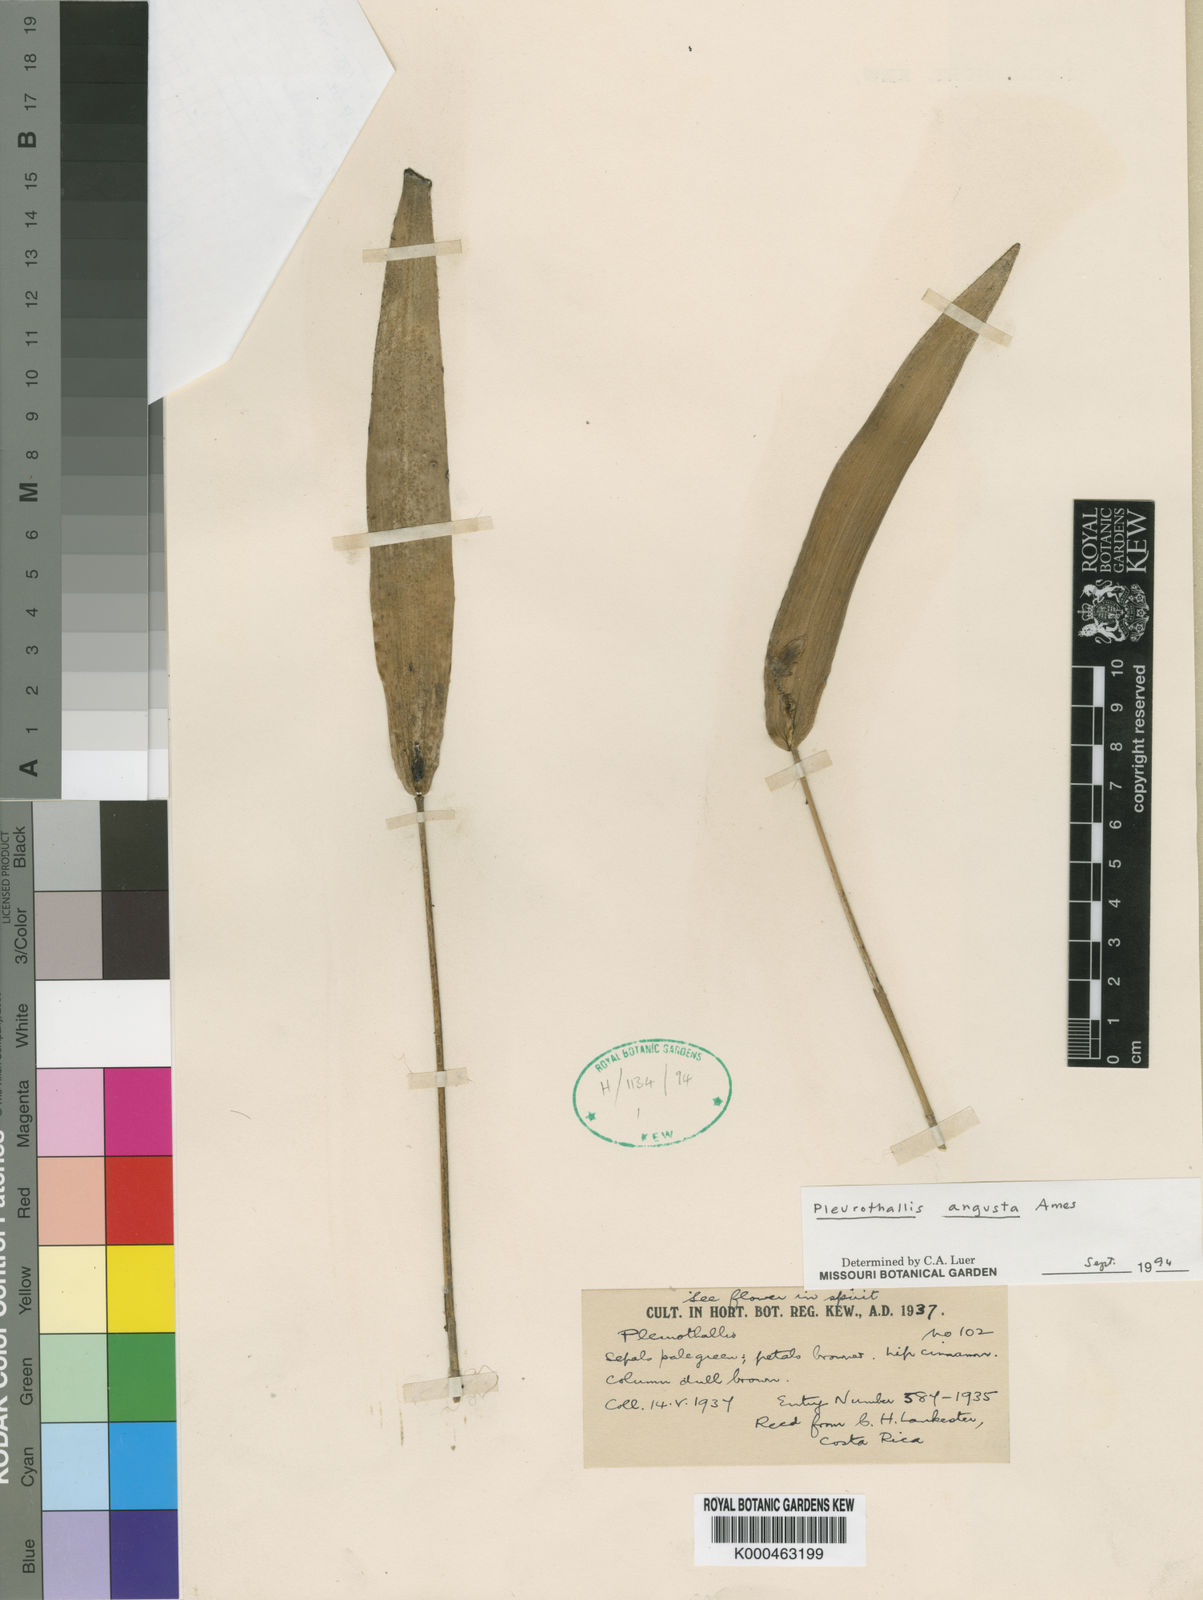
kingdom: Plantae
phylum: Tracheophyta
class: Liliopsida
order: Asparagales
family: Orchidaceae
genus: Pleurothallis
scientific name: Pleurothallis bivalvis
